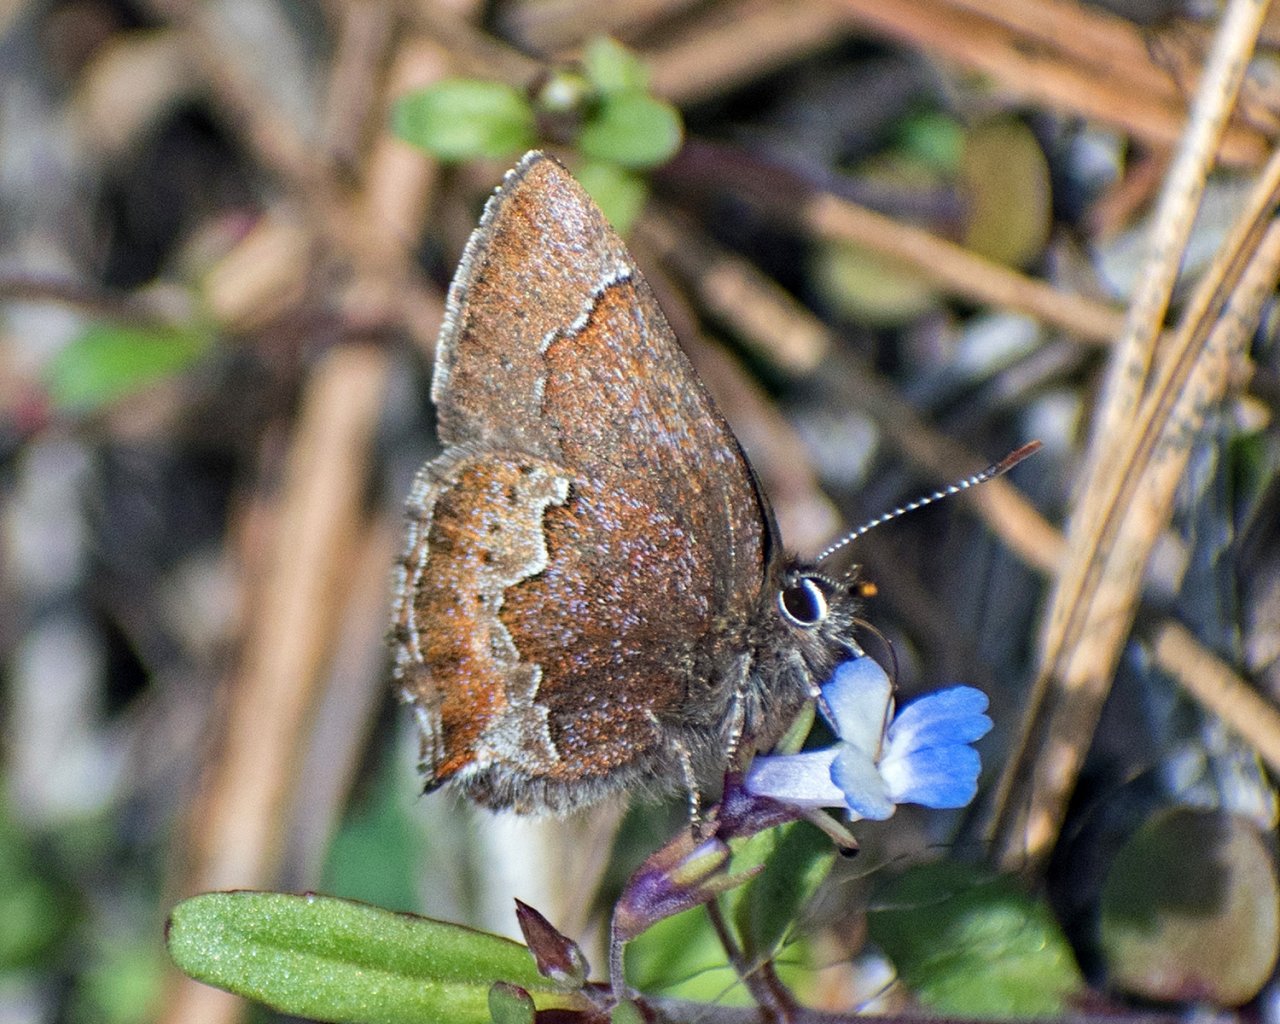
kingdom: Animalia
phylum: Arthropoda
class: Insecta
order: Lepidoptera
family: Lycaenidae
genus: Callophrys
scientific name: Callophrys mossii
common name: Moss' Elfin
